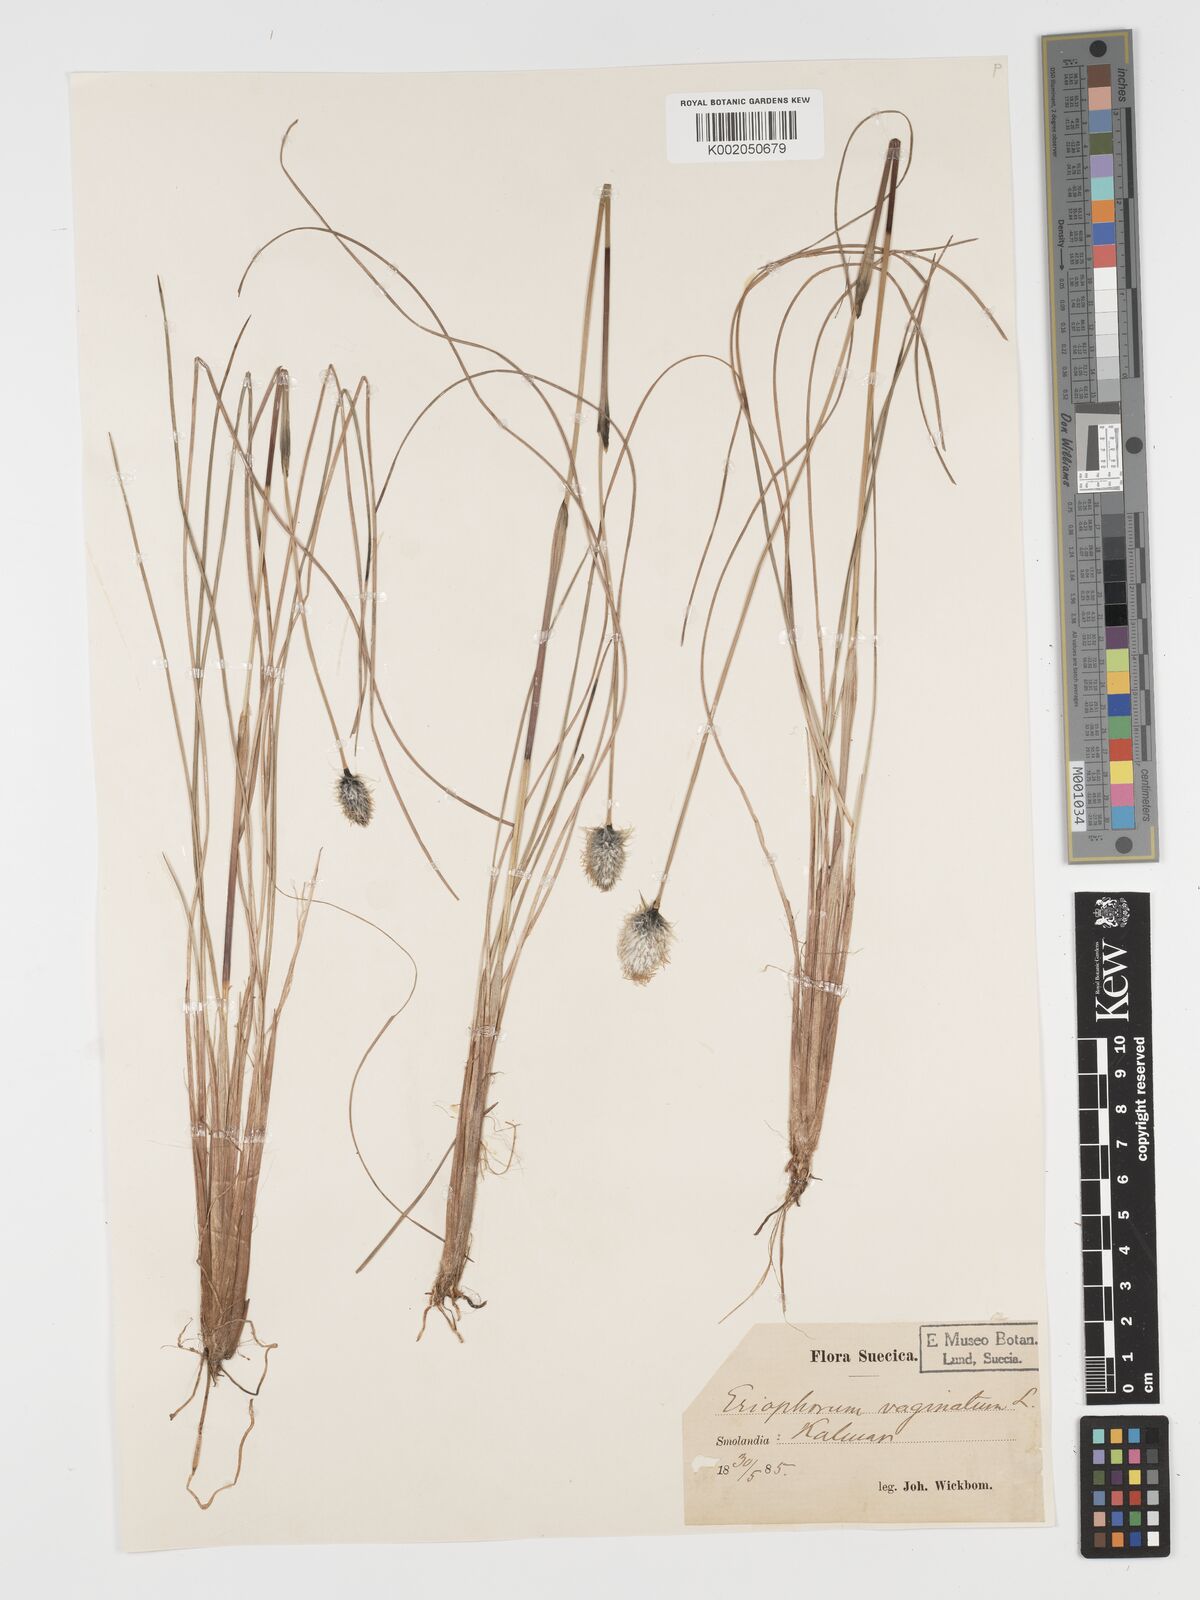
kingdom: Plantae
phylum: Tracheophyta
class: Liliopsida
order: Poales
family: Cyperaceae
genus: Eriophorum
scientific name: Eriophorum vaginatum
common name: Hare's-tail cottongrass
